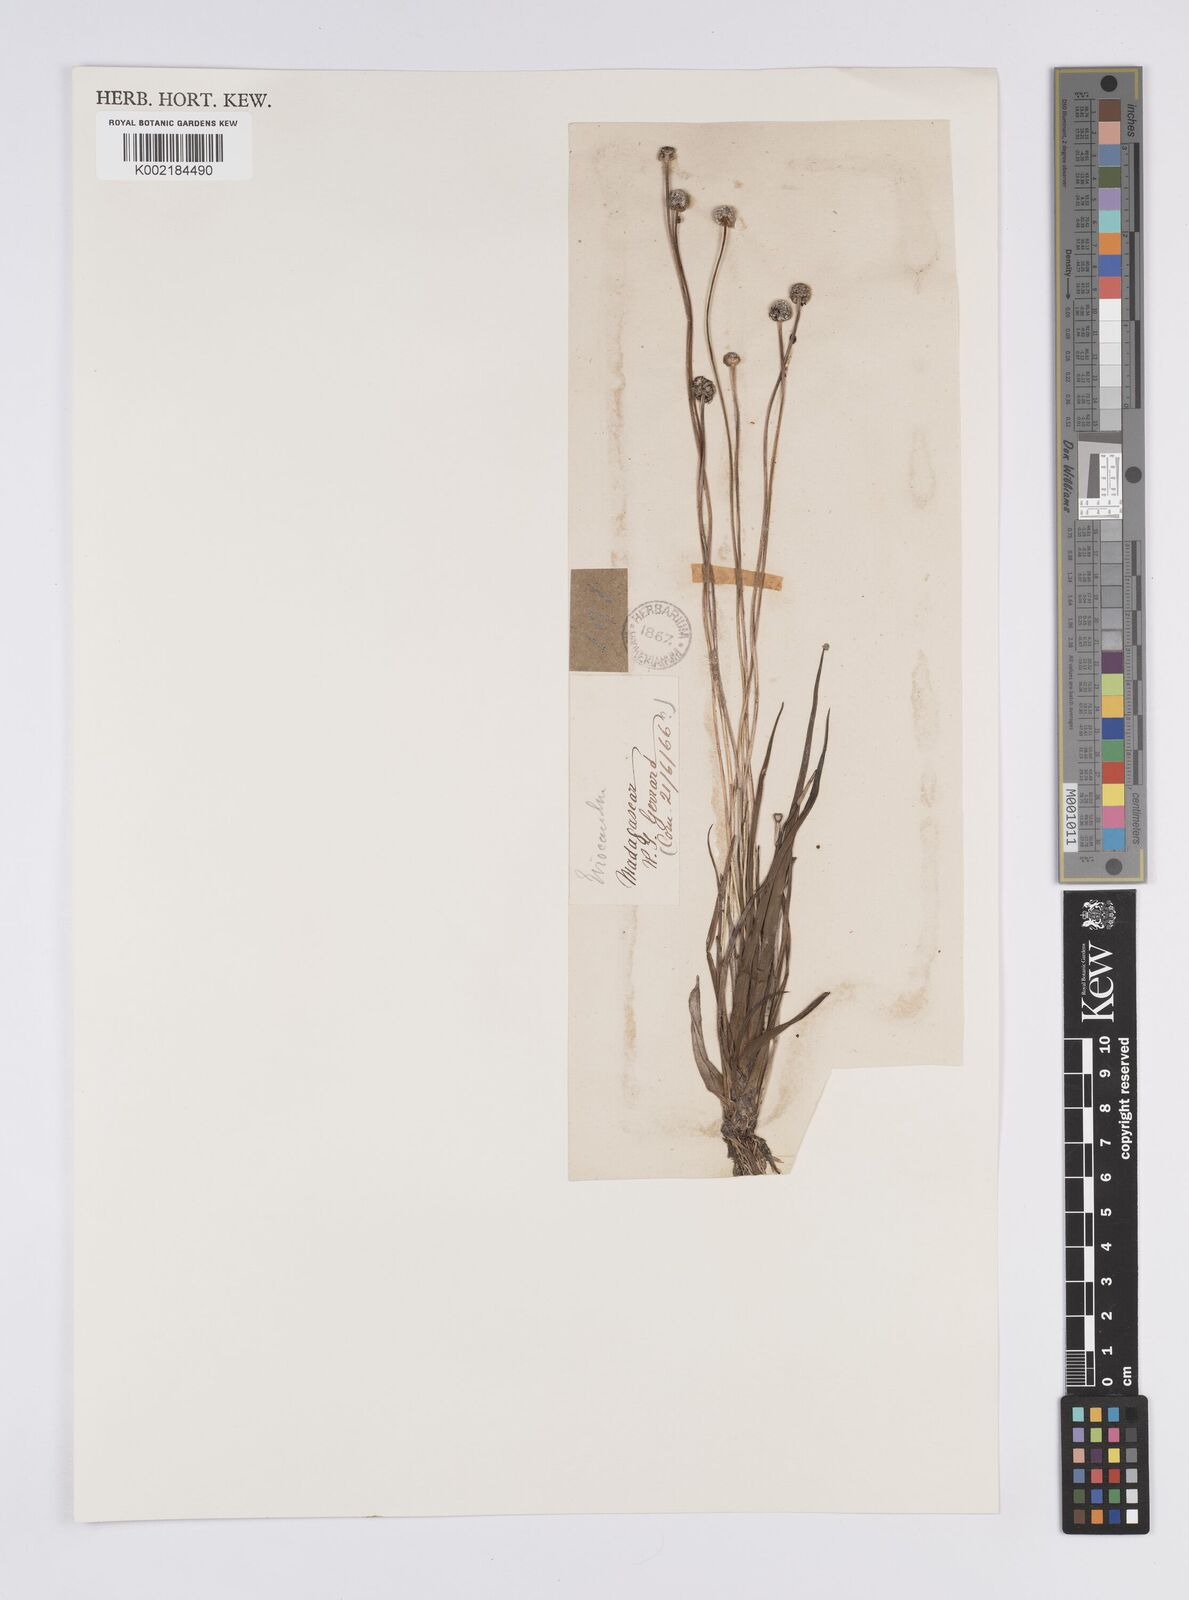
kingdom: Plantae
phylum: Tracheophyta
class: Liliopsida
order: Poales
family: Eriocaulaceae
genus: Eriocaulon
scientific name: Eriocaulon willdenovianum
